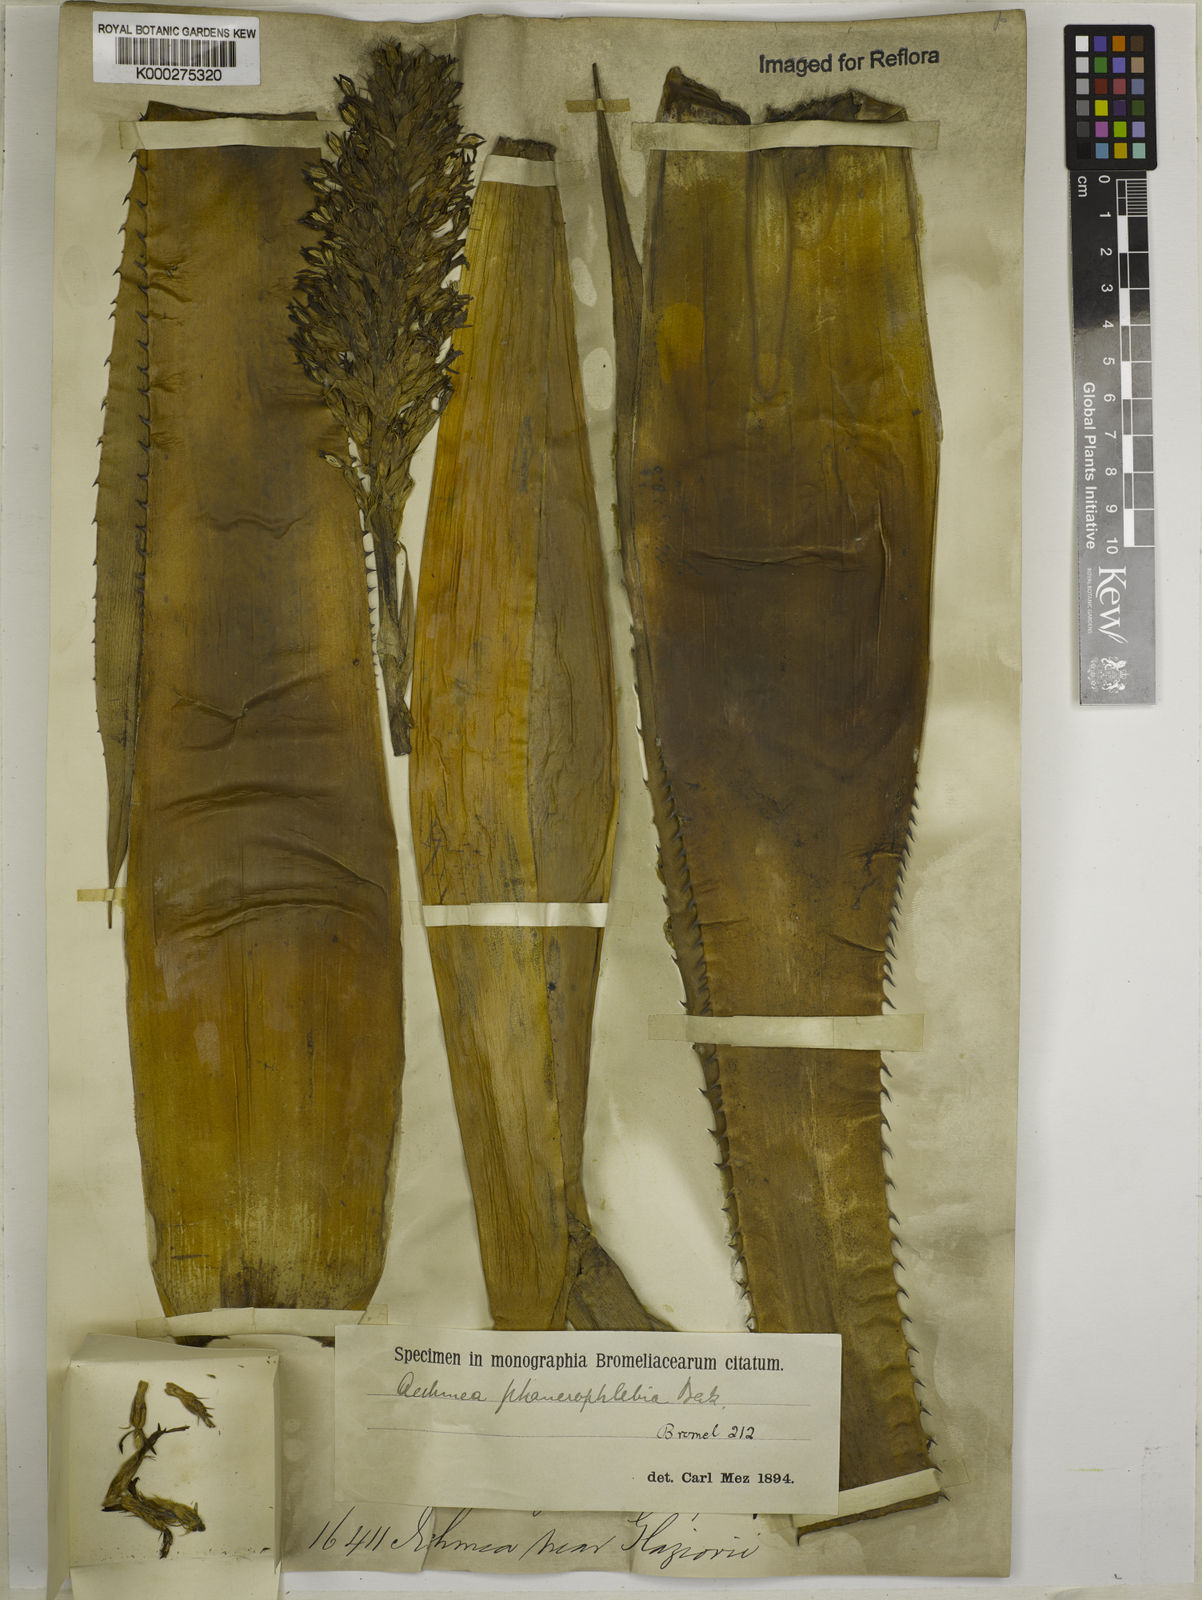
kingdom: Plantae
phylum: Tracheophyta
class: Liliopsida
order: Poales
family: Bromeliaceae
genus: Aechmea
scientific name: Aechmea phanerophlebia
